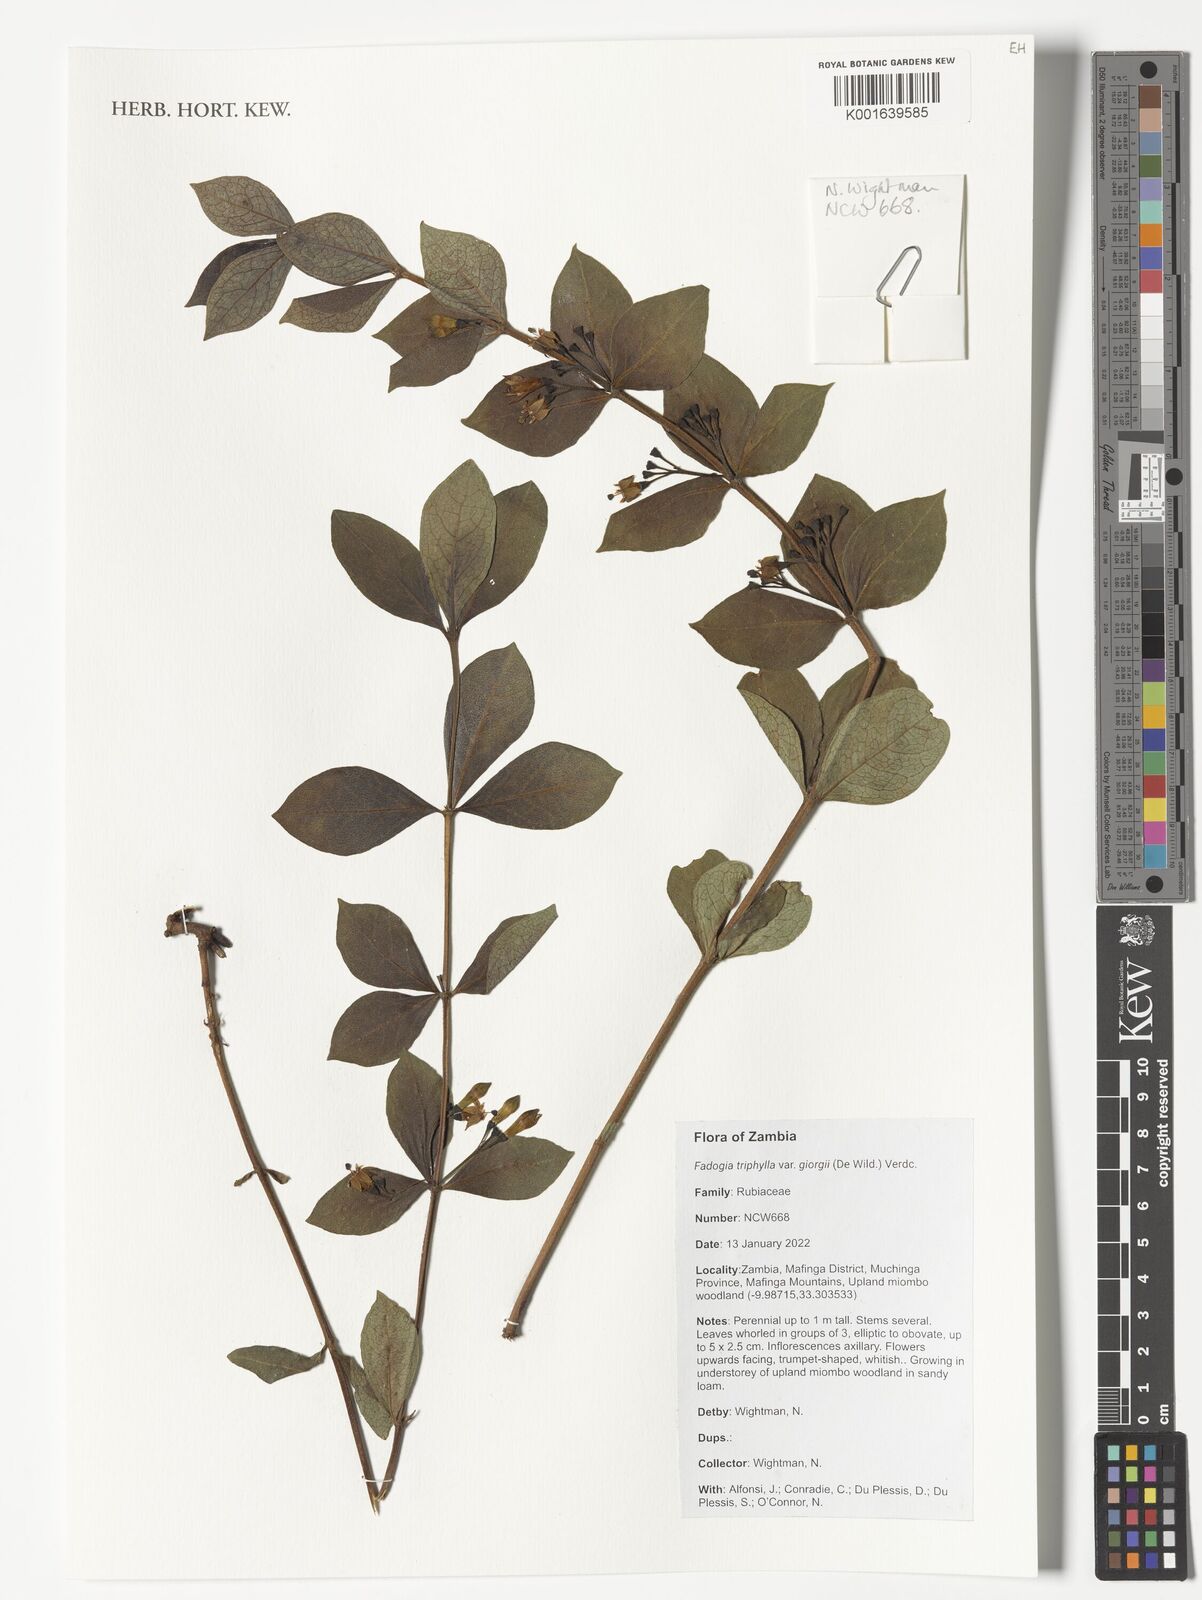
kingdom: Plantae
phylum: Tracheophyta
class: Magnoliopsida
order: Gentianales
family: Rubiaceae
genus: Fadogia
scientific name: Fadogia triphylla
